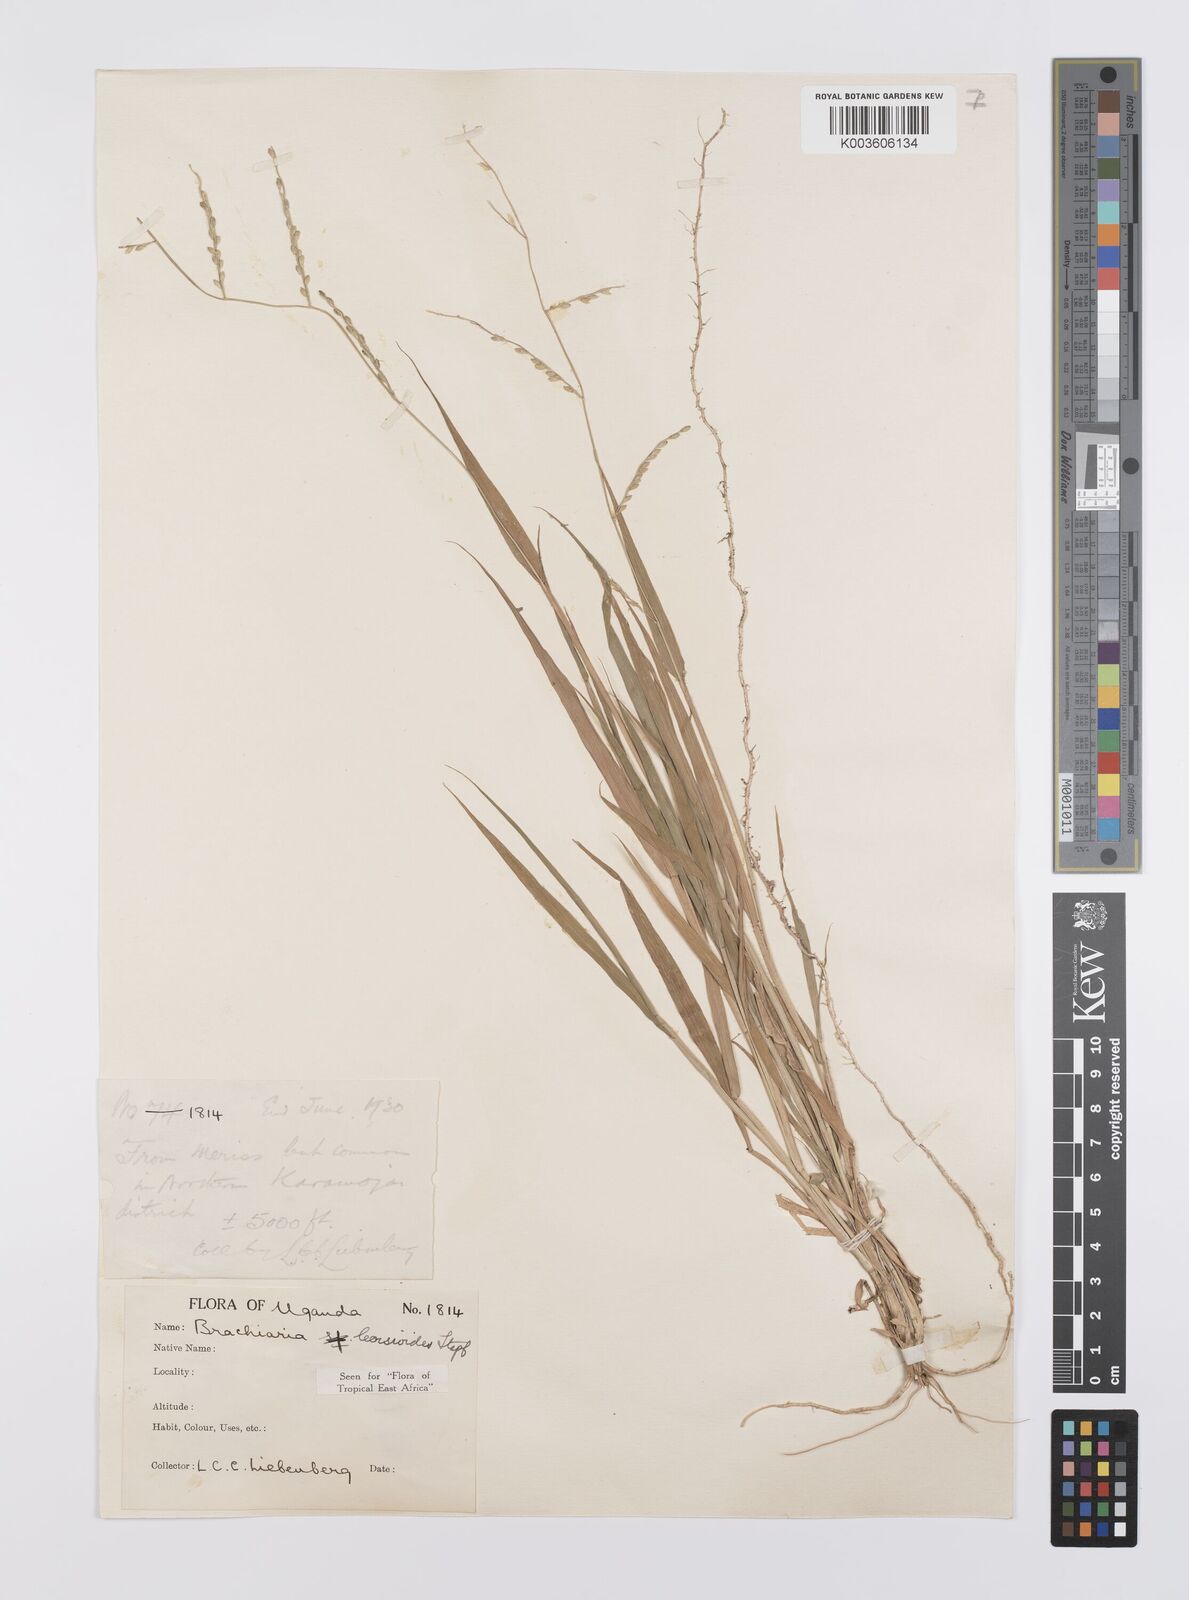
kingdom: Plantae
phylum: Tracheophyta
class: Liliopsida
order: Poales
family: Poaceae
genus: Urochloa
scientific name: Urochloa leersioides
